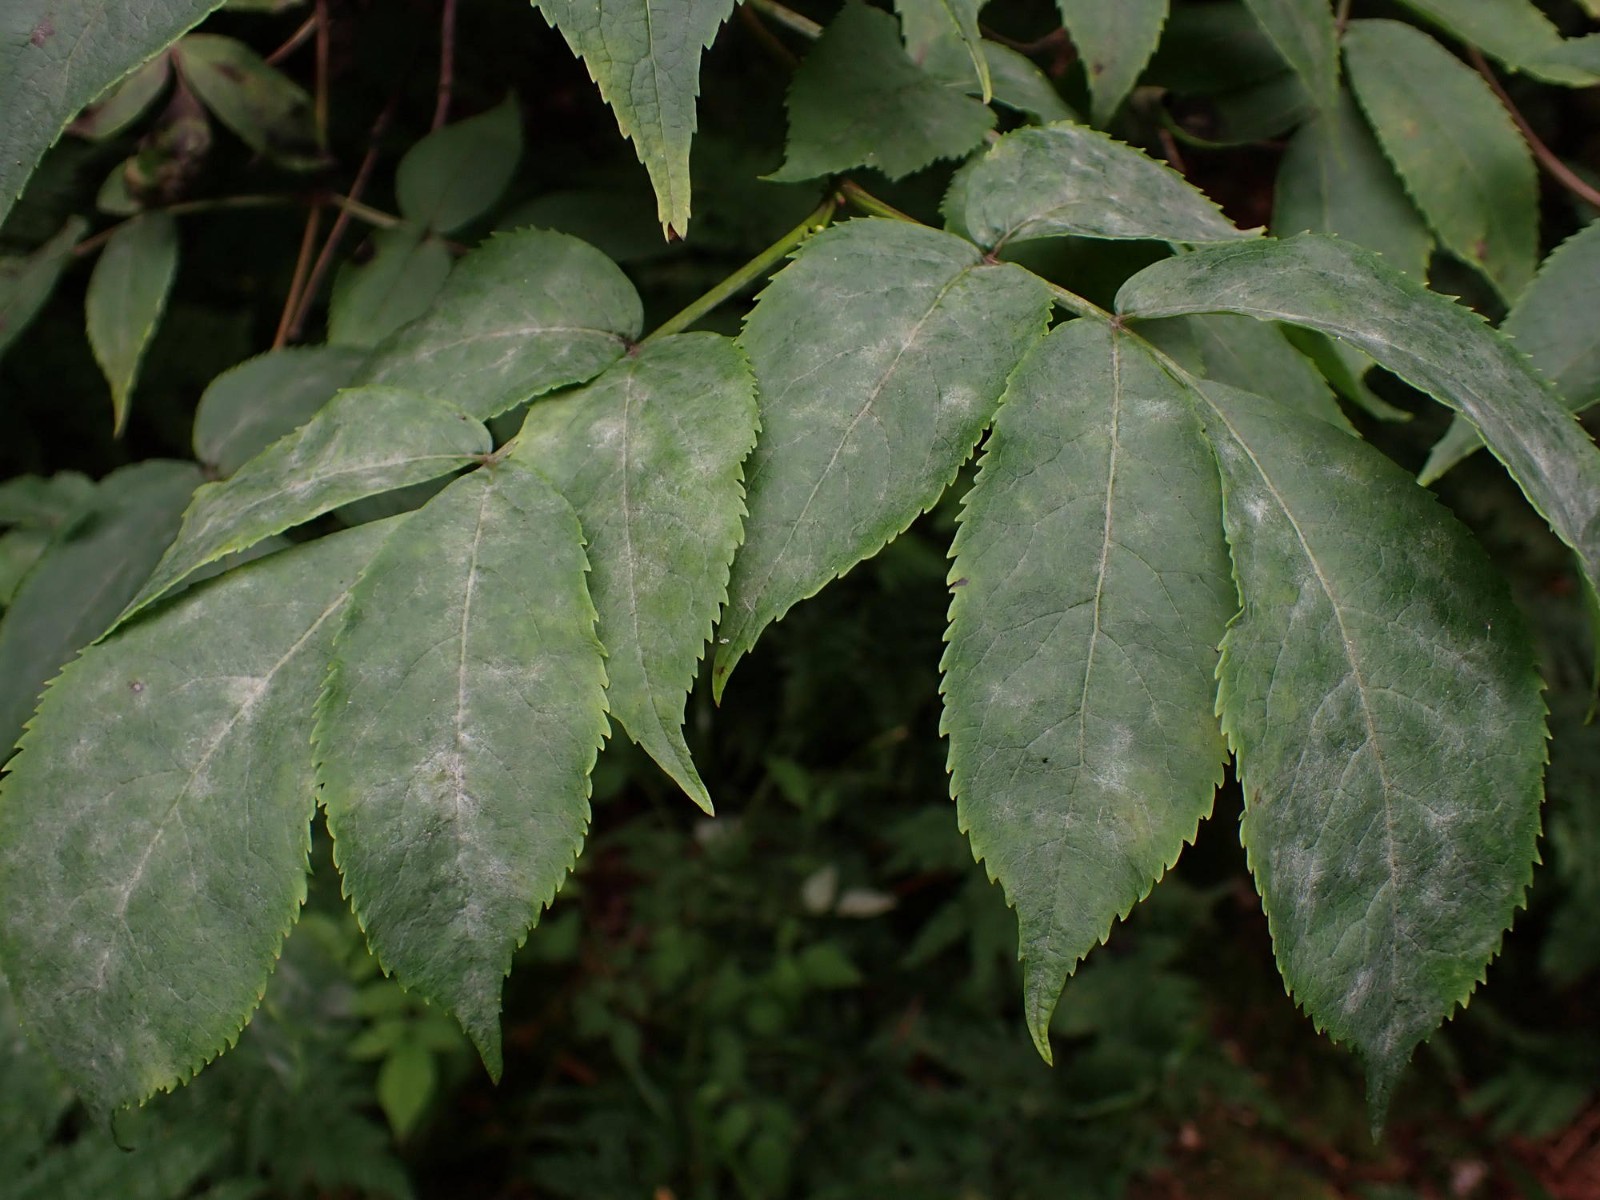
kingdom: Fungi
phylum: Ascomycota
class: Leotiomycetes
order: Helotiales
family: Erysiphaceae
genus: Erysiphe
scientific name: Erysiphe vanbruntiana
